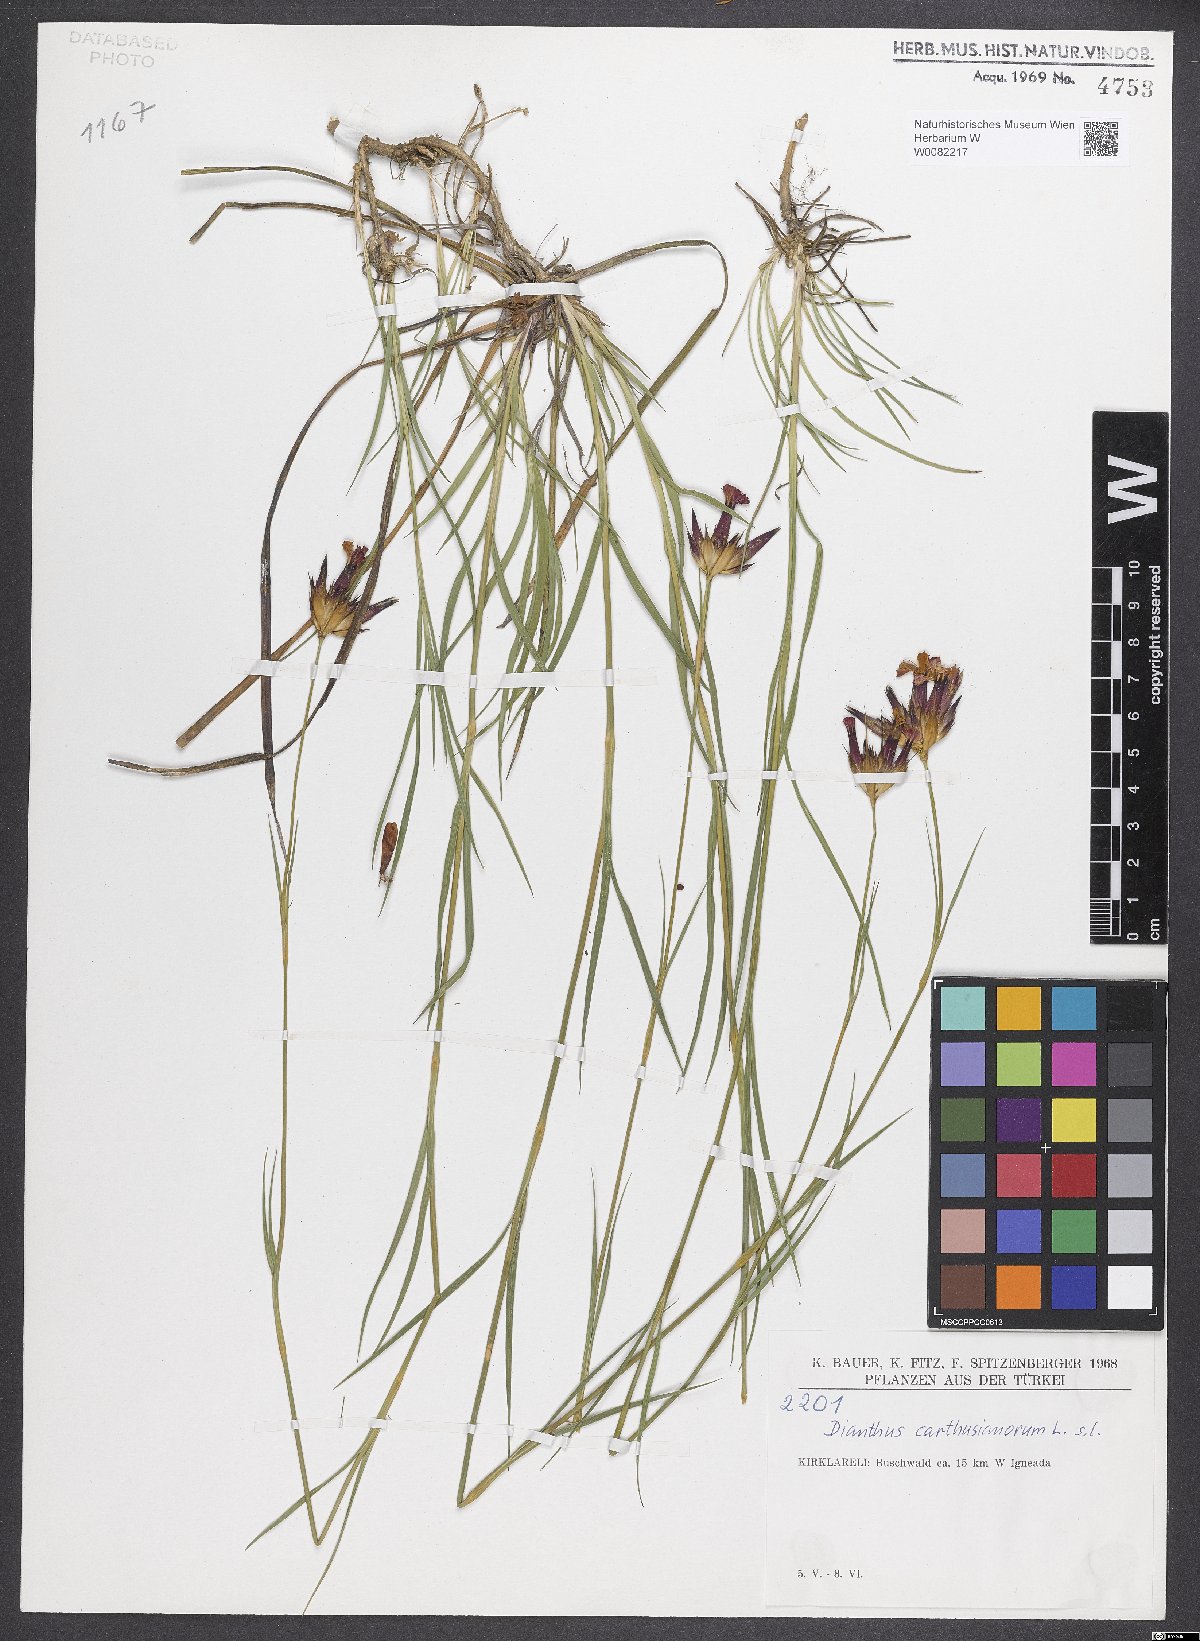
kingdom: Plantae
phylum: Tracheophyta
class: Magnoliopsida
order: Caryophyllales
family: Caryophyllaceae
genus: Dianthus
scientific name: Dianthus carthusianorum
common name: Carthusian pink
